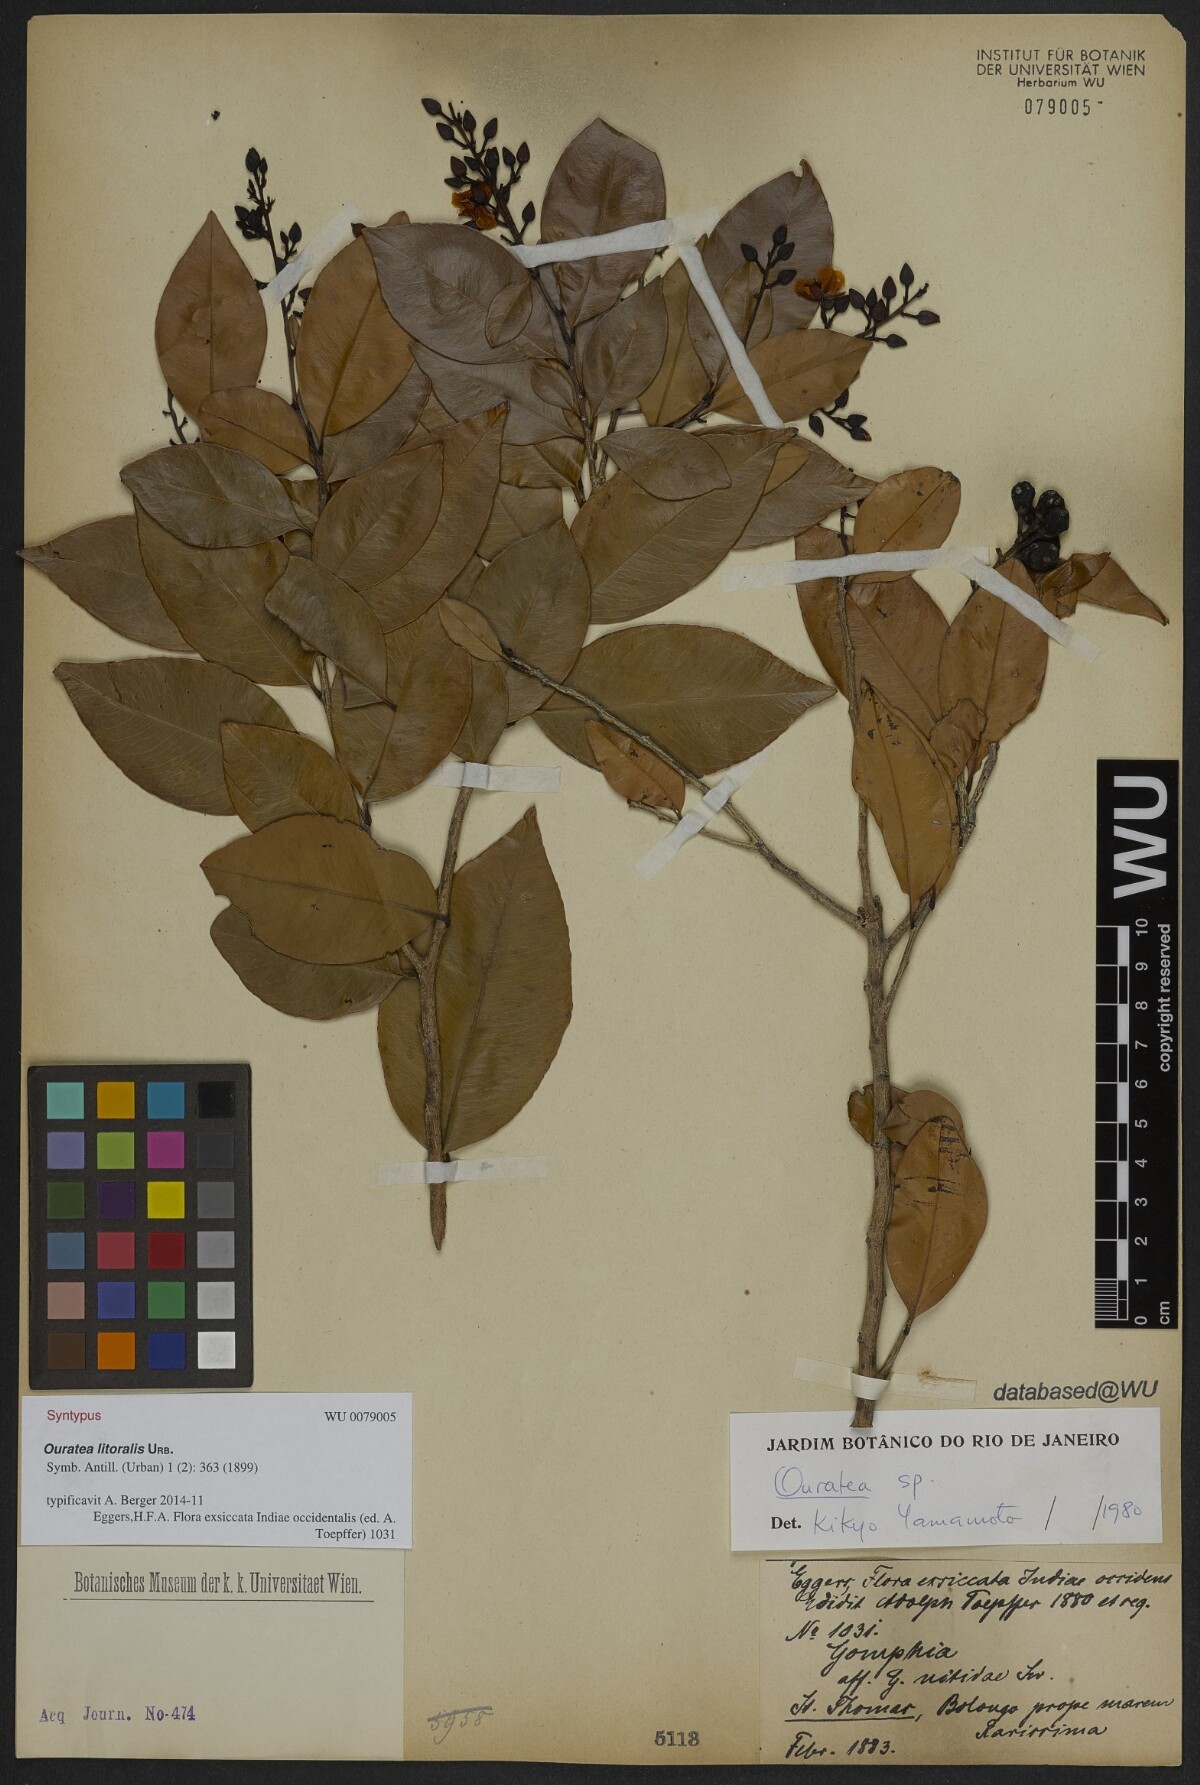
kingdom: Plantae
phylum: Tracheophyta
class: Magnoliopsida
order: Malpighiales
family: Ochnaceae
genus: Ouratea
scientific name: Ouratea litoralis
